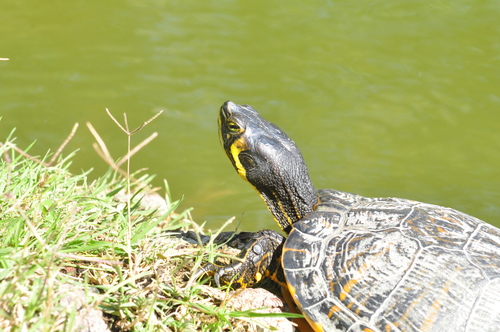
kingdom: Animalia
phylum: Chordata
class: Testudines
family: Emydidae
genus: Trachemys
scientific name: Trachemys scripta
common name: Slider
